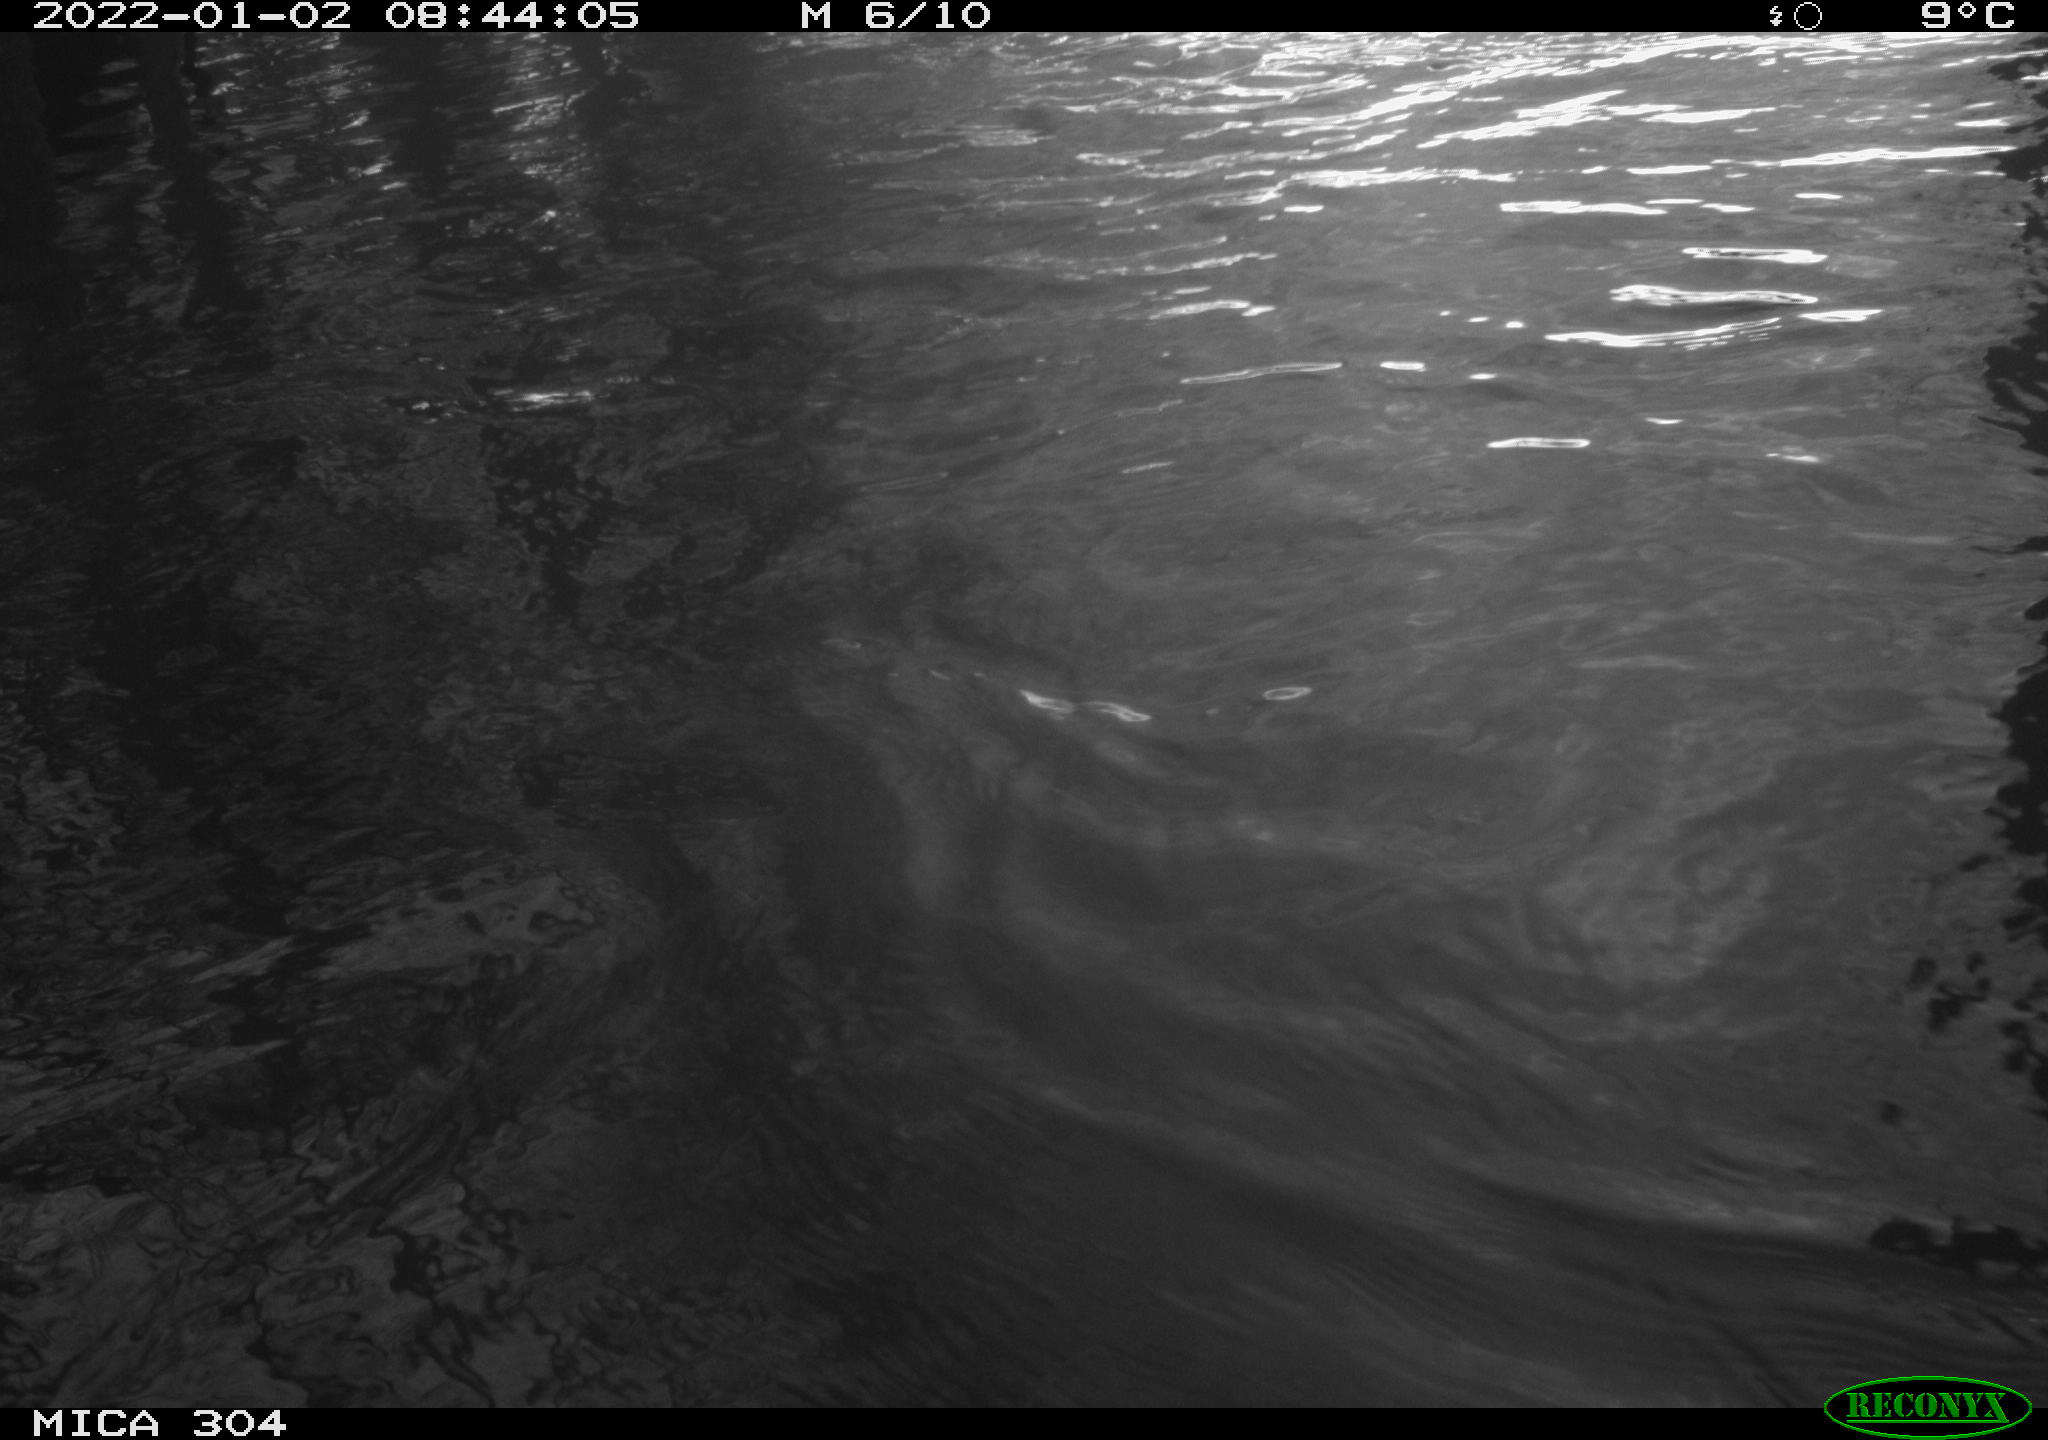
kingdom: Animalia
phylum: Chordata
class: Aves
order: Gruiformes
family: Rallidae
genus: Fulica
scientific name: Fulica atra
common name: Eurasian coot
